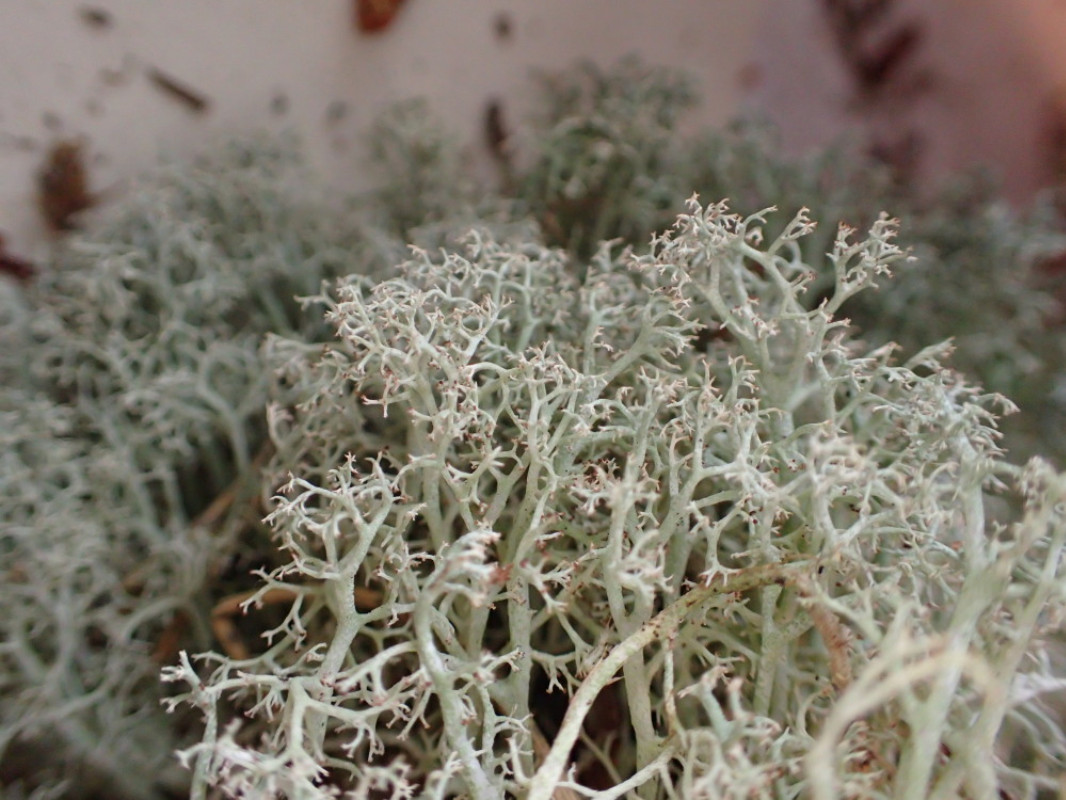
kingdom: Fungi
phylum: Ascomycota
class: Lecanoromycetes
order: Lecanorales
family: Cladoniaceae
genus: Cladonia
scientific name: Cladonia ciliata
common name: spinkel rensdyrlav
